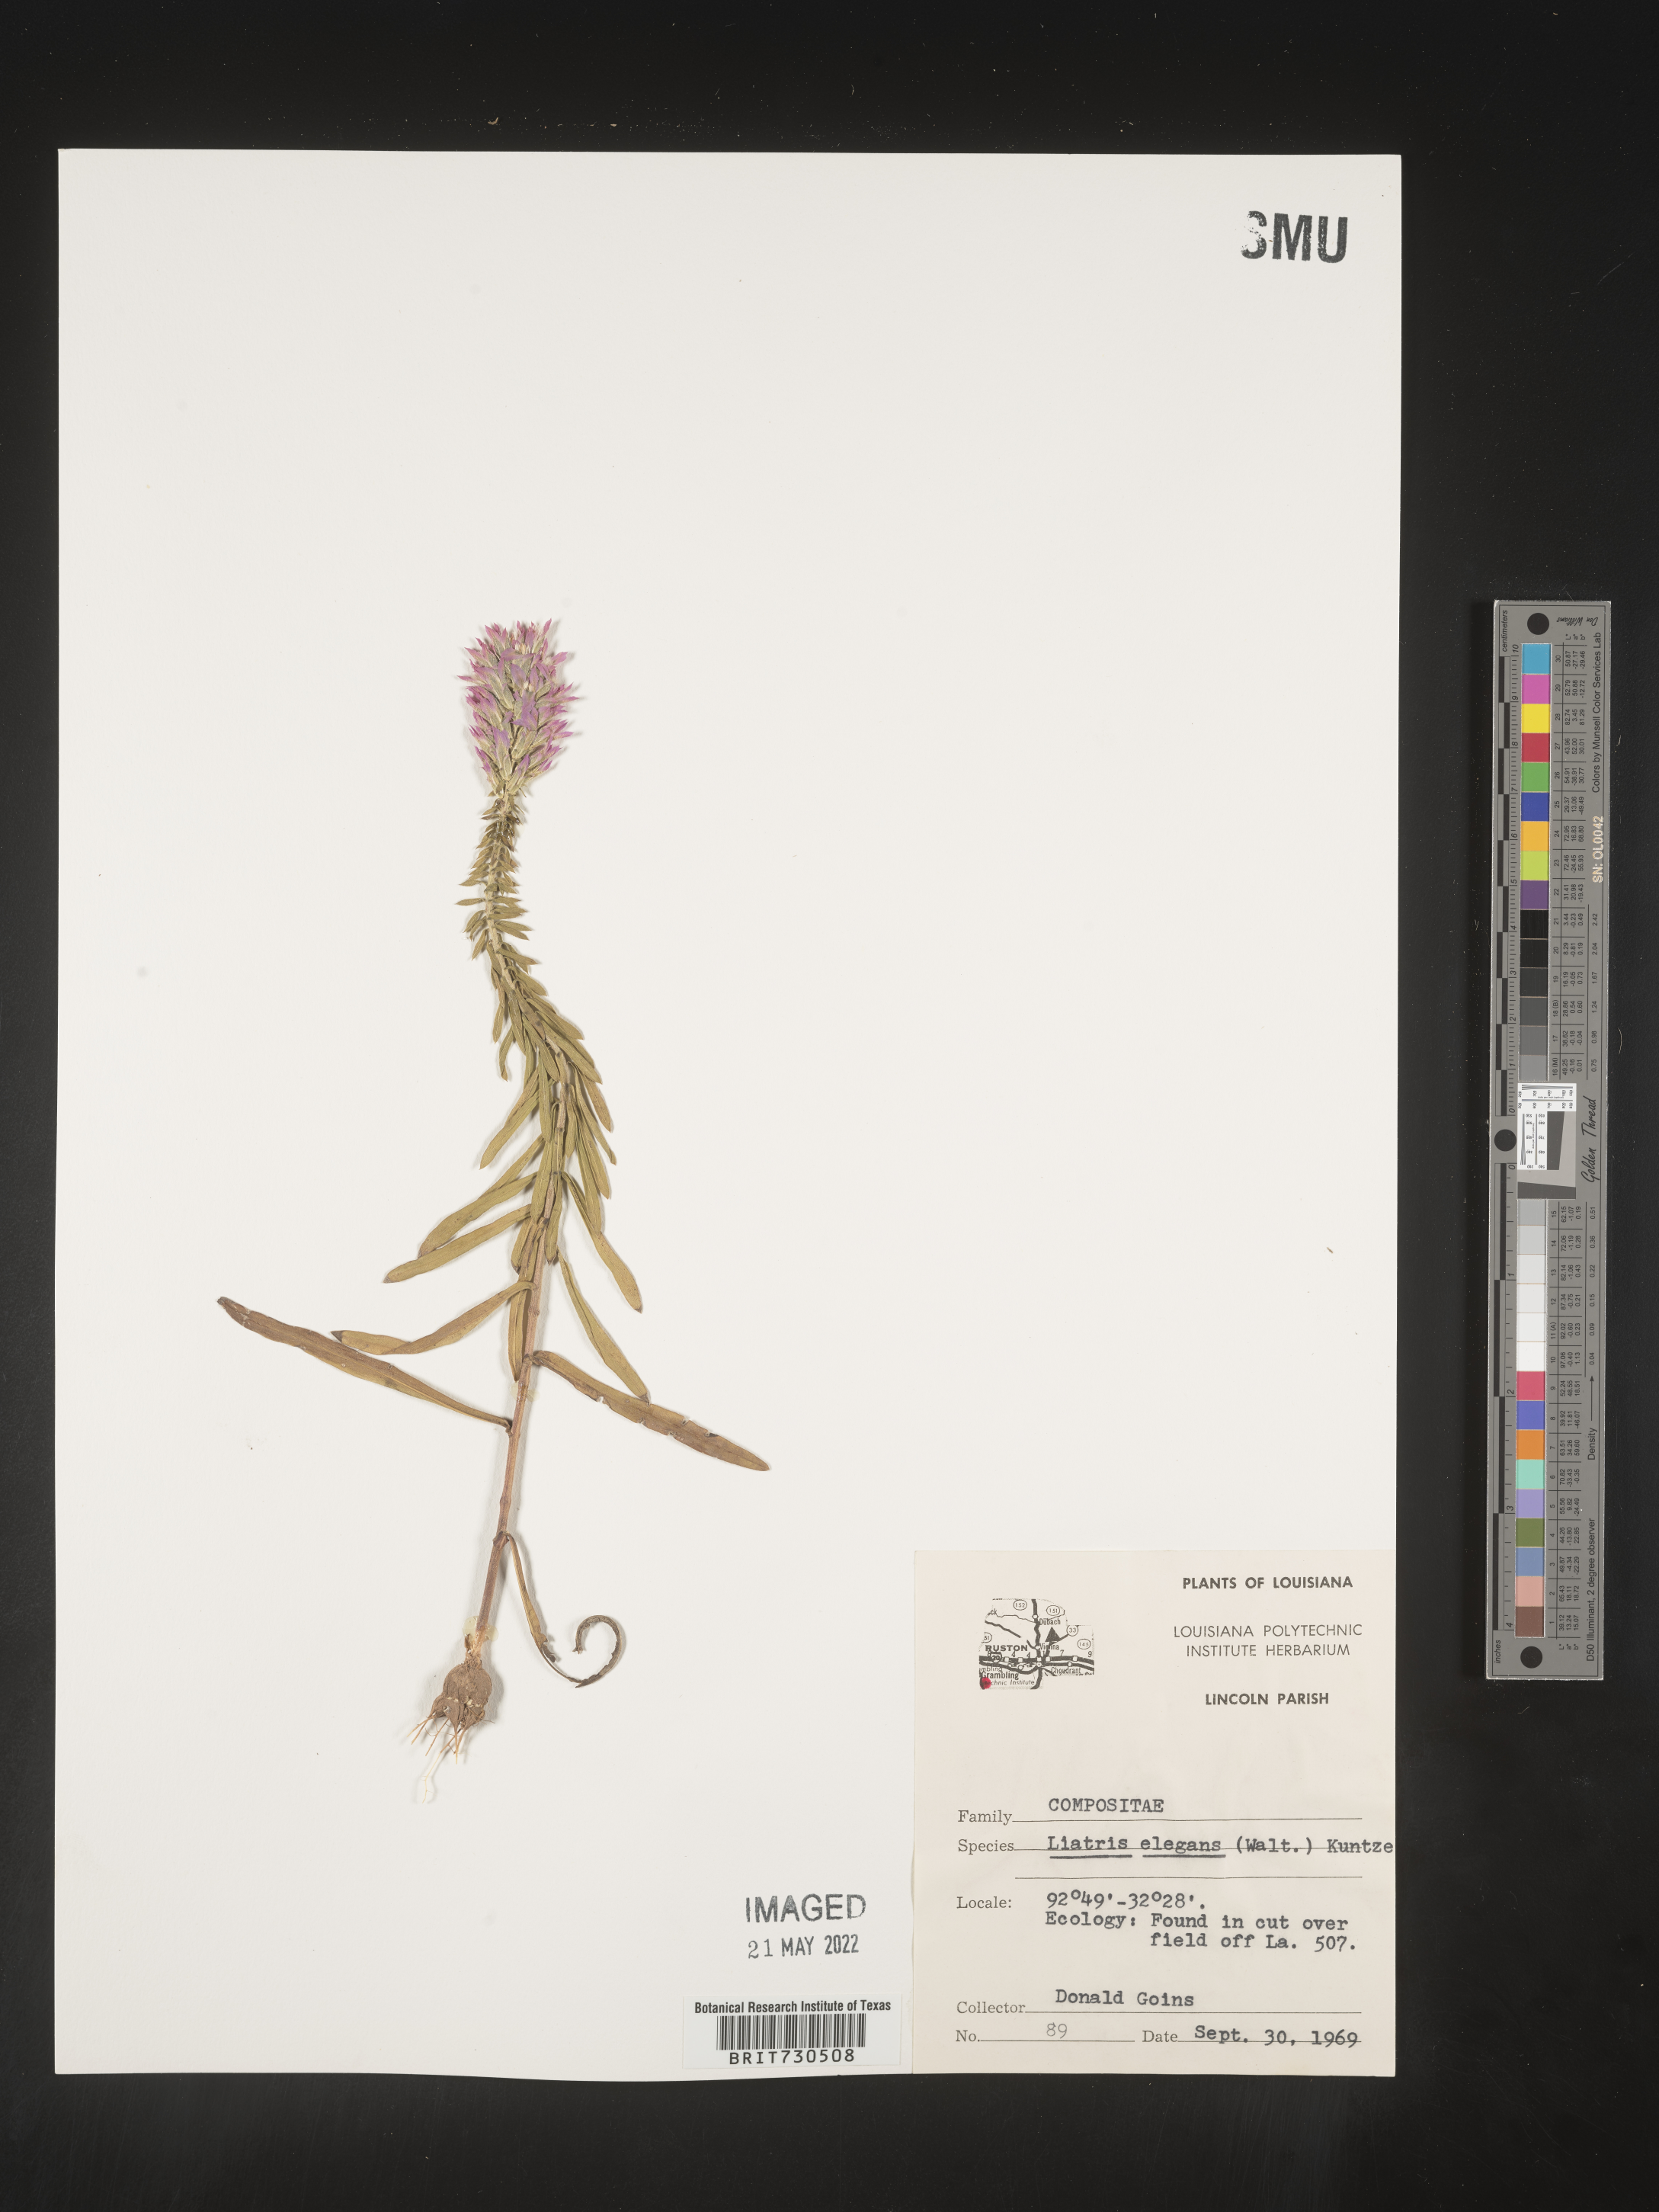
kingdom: Plantae
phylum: Tracheophyta
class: Magnoliopsida
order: Asterales
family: Asteraceae
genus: Liatris
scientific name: Liatris elegans
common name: Pinkscale gayfeather
